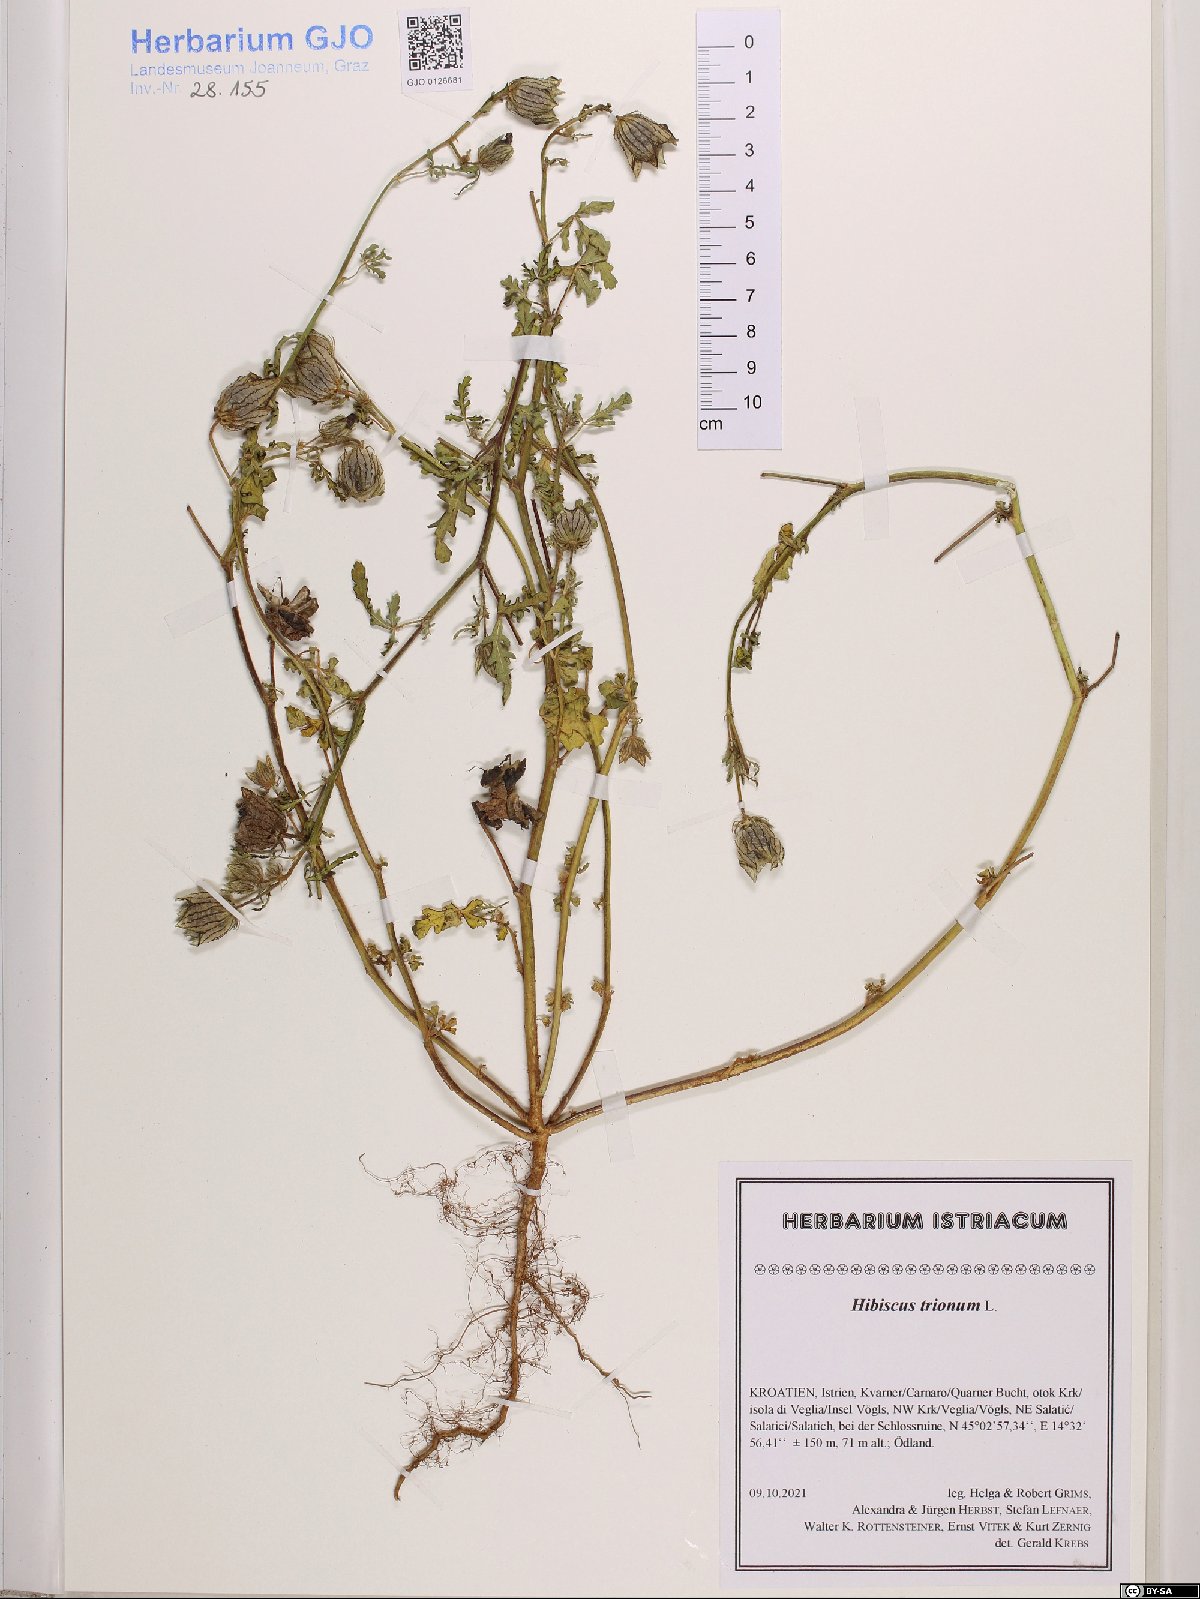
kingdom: Plantae
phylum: Tracheophyta
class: Magnoliopsida
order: Malvales
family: Malvaceae
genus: Hibiscus
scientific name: Hibiscus trionum
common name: Bladder ketmia
